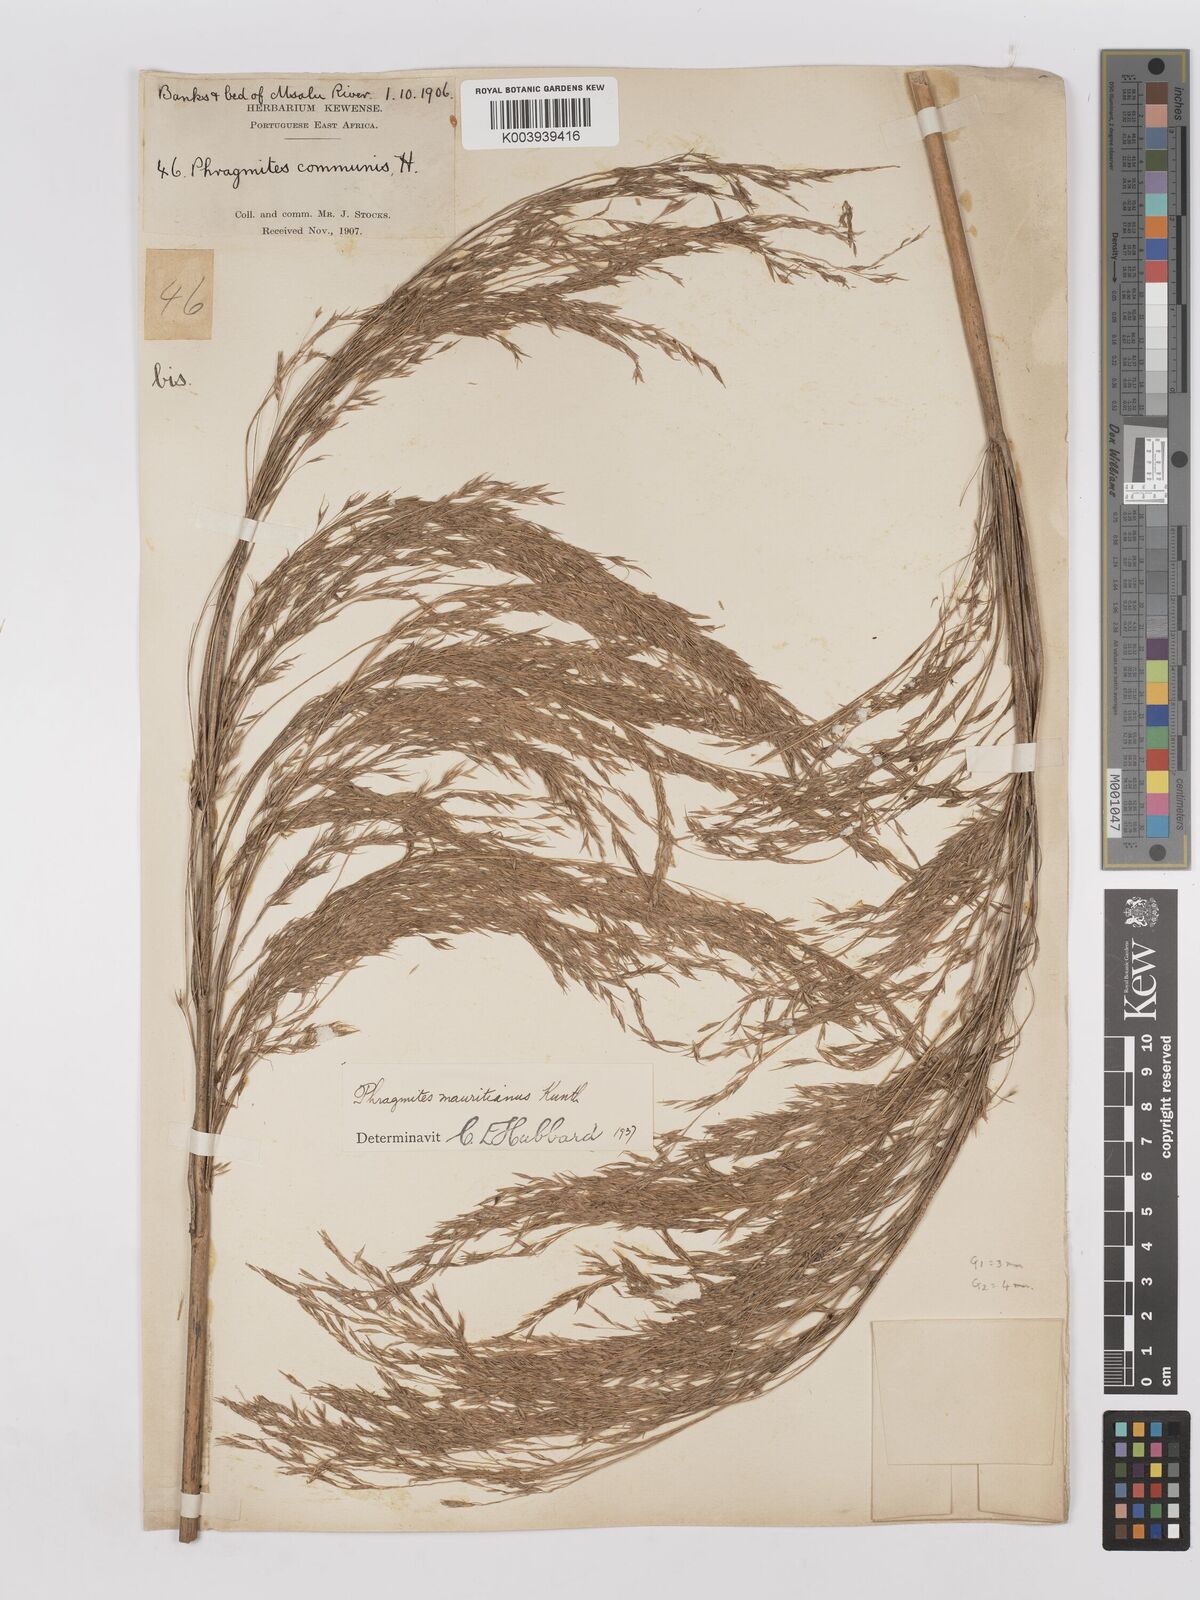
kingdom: Plantae
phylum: Tracheophyta
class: Liliopsida
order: Poales
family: Poaceae
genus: Phragmites
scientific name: Phragmites mauritianus
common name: Reed grass
